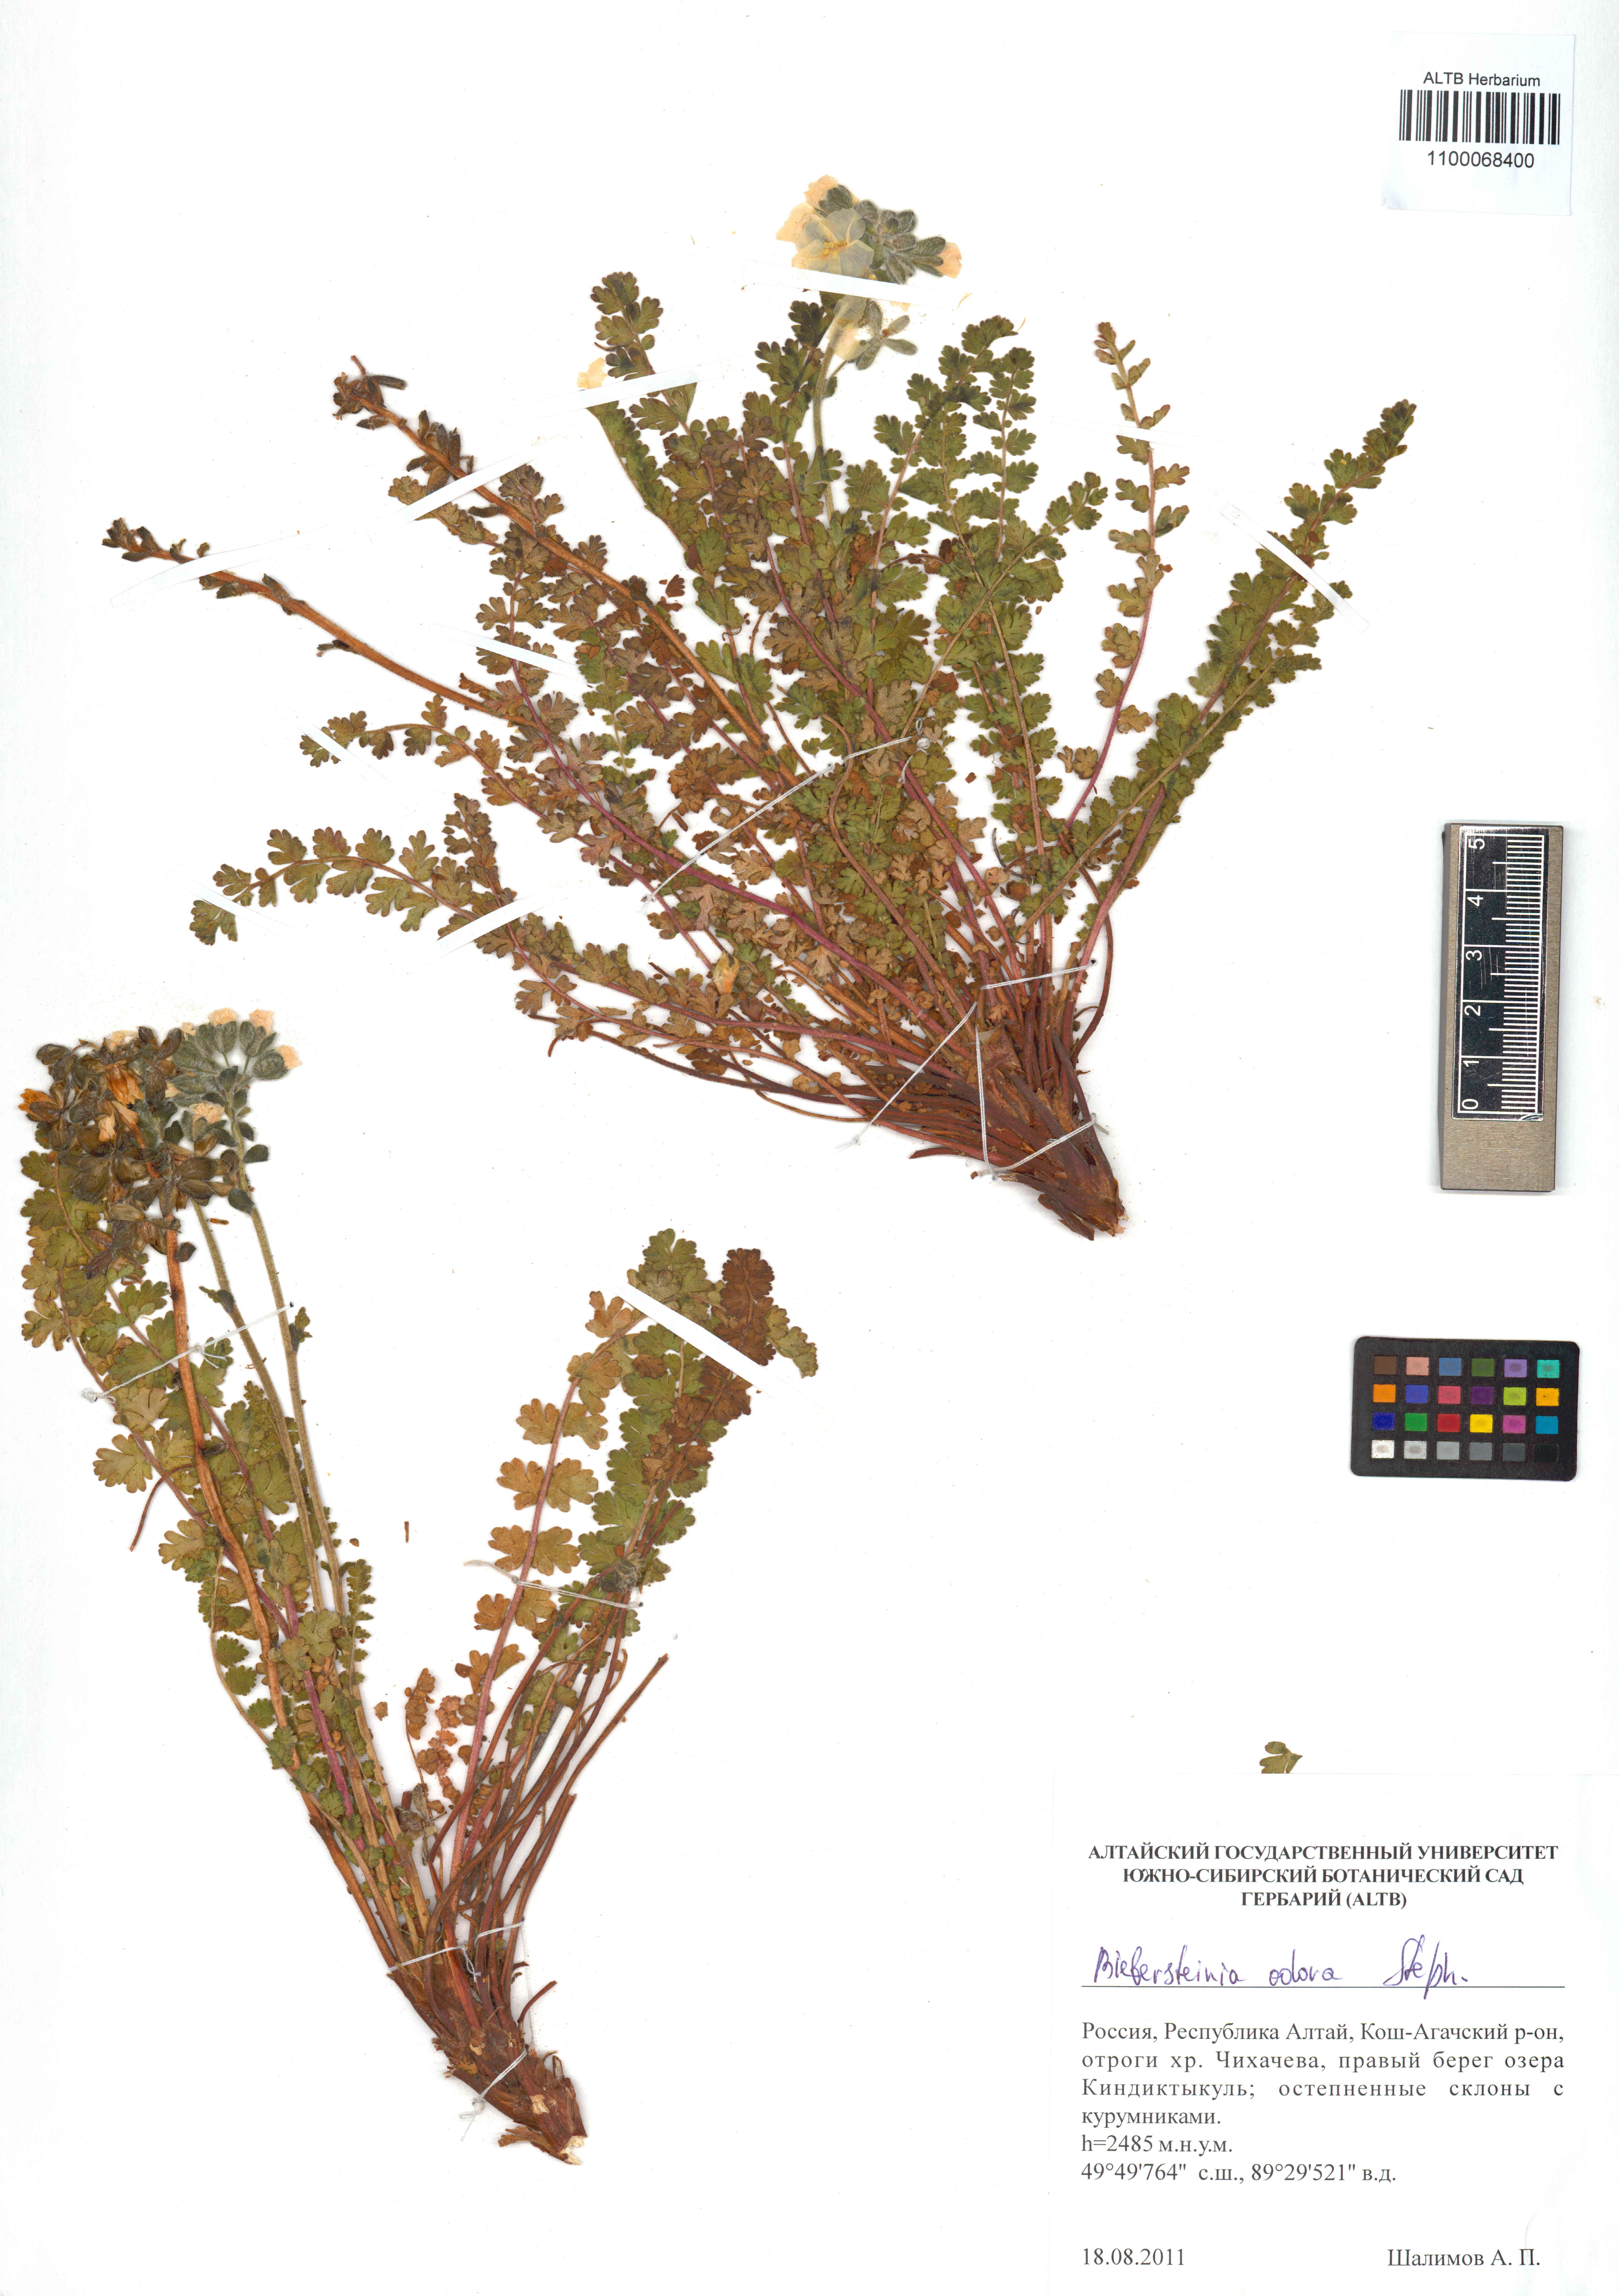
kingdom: Plantae
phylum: Tracheophyta
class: Magnoliopsida
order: Sapindales
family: Biebersteiniaceae
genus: Biebersteinia
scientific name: Biebersteinia odora
